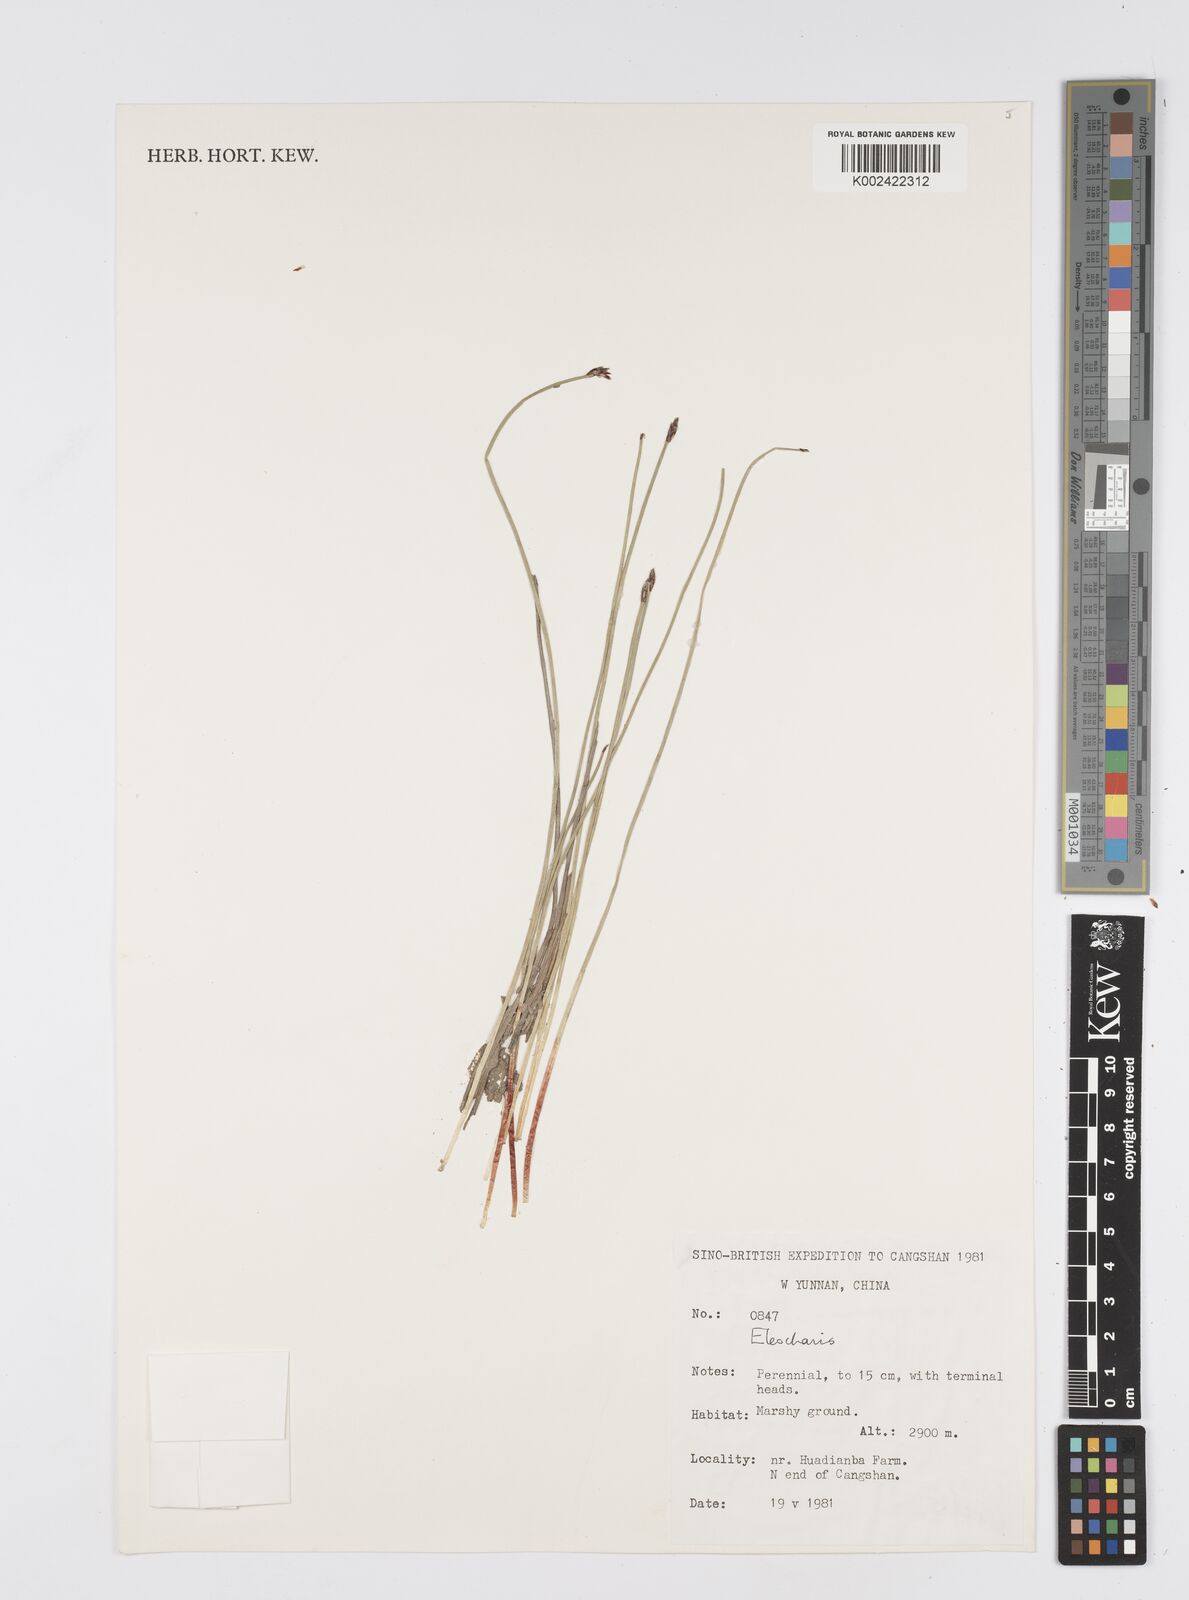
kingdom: Plantae
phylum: Tracheophyta
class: Liliopsida
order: Poales
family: Cyperaceae
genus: Eleocharis
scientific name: Eleocharis
